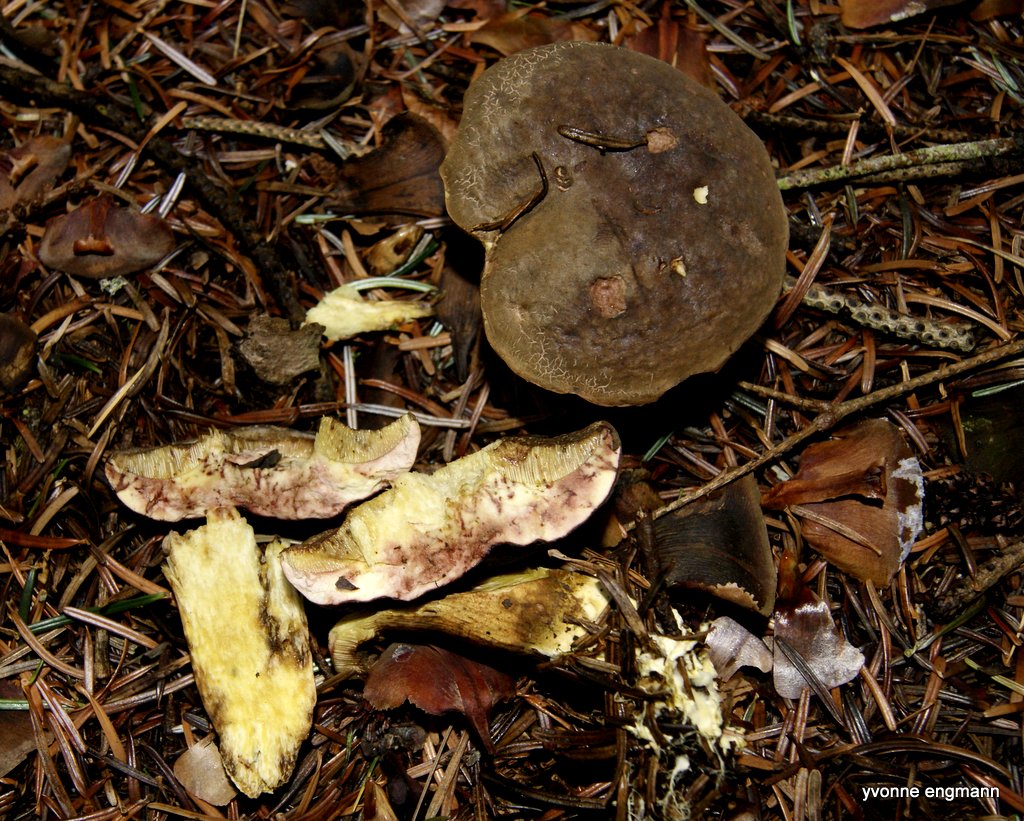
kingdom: Fungi
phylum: Basidiomycota
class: Agaricomycetes
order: Boletales
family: Boletaceae
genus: Xerocomellus
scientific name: Xerocomellus pruinatus
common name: dugget rørhat
